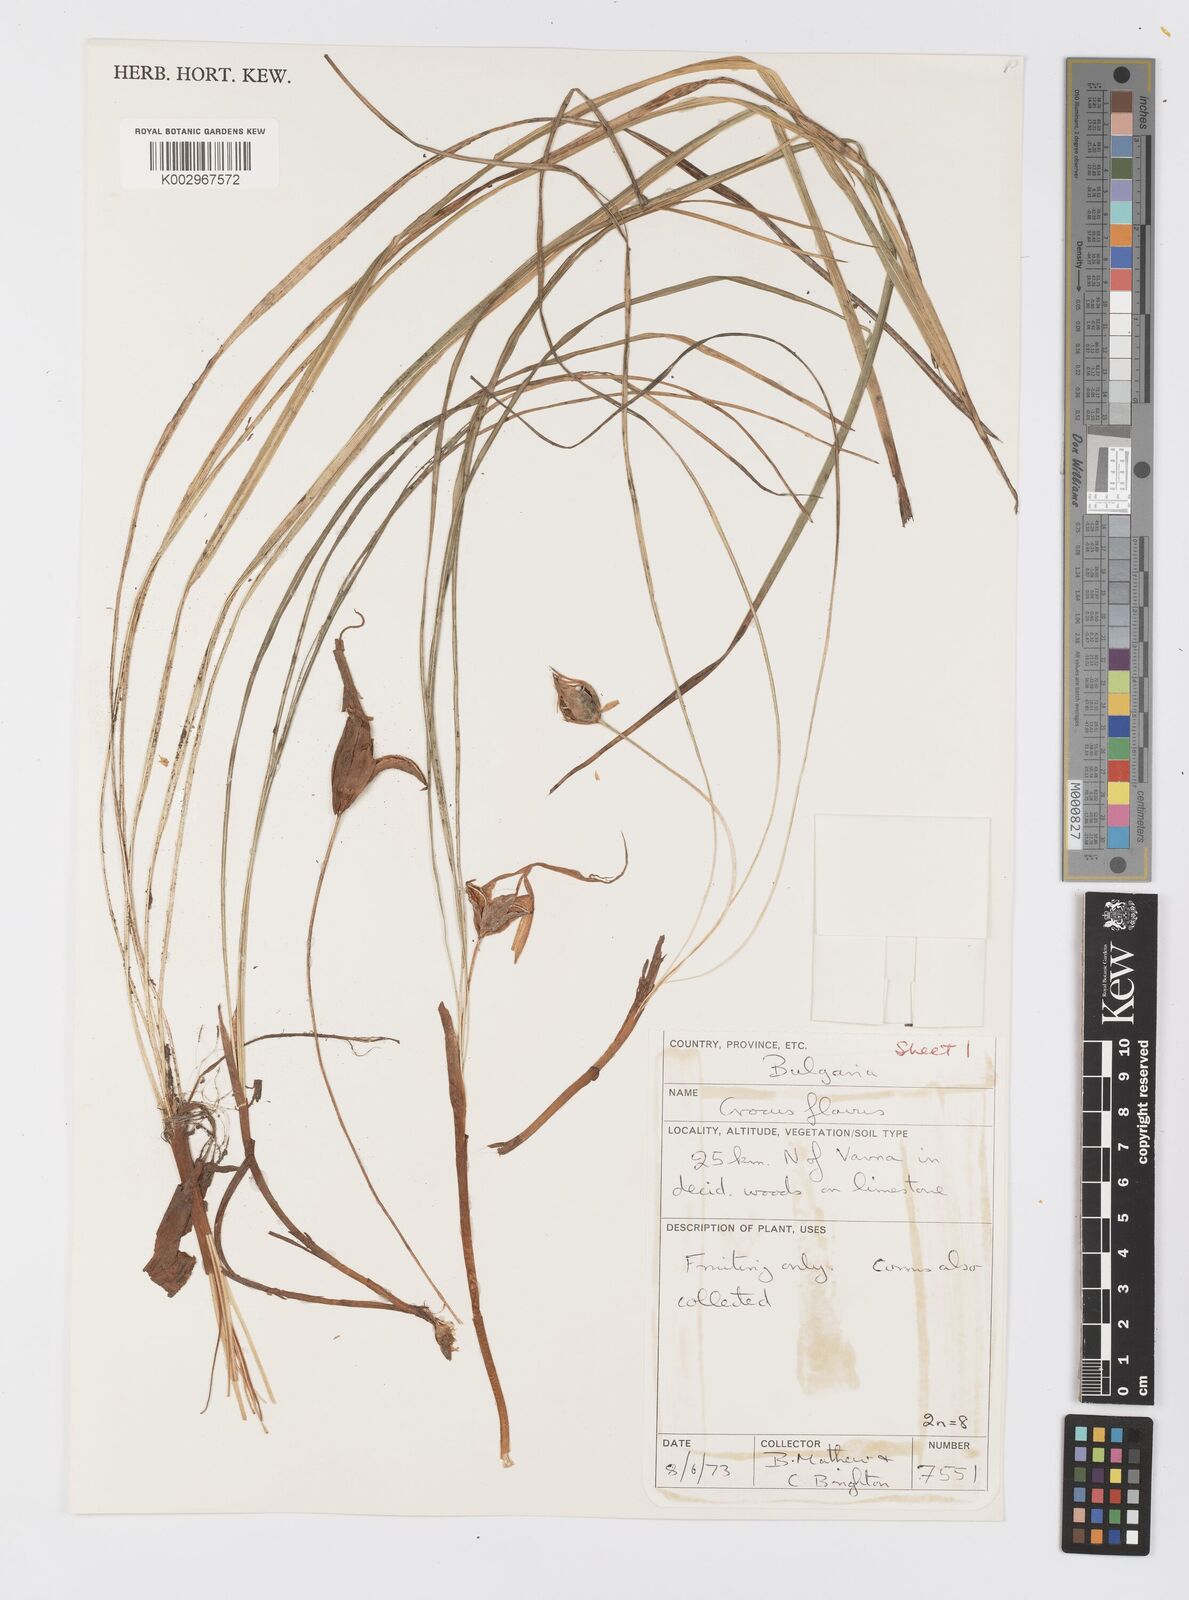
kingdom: Plantae
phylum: Tracheophyta
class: Liliopsida
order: Asparagales
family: Iridaceae
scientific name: Iridaceae
